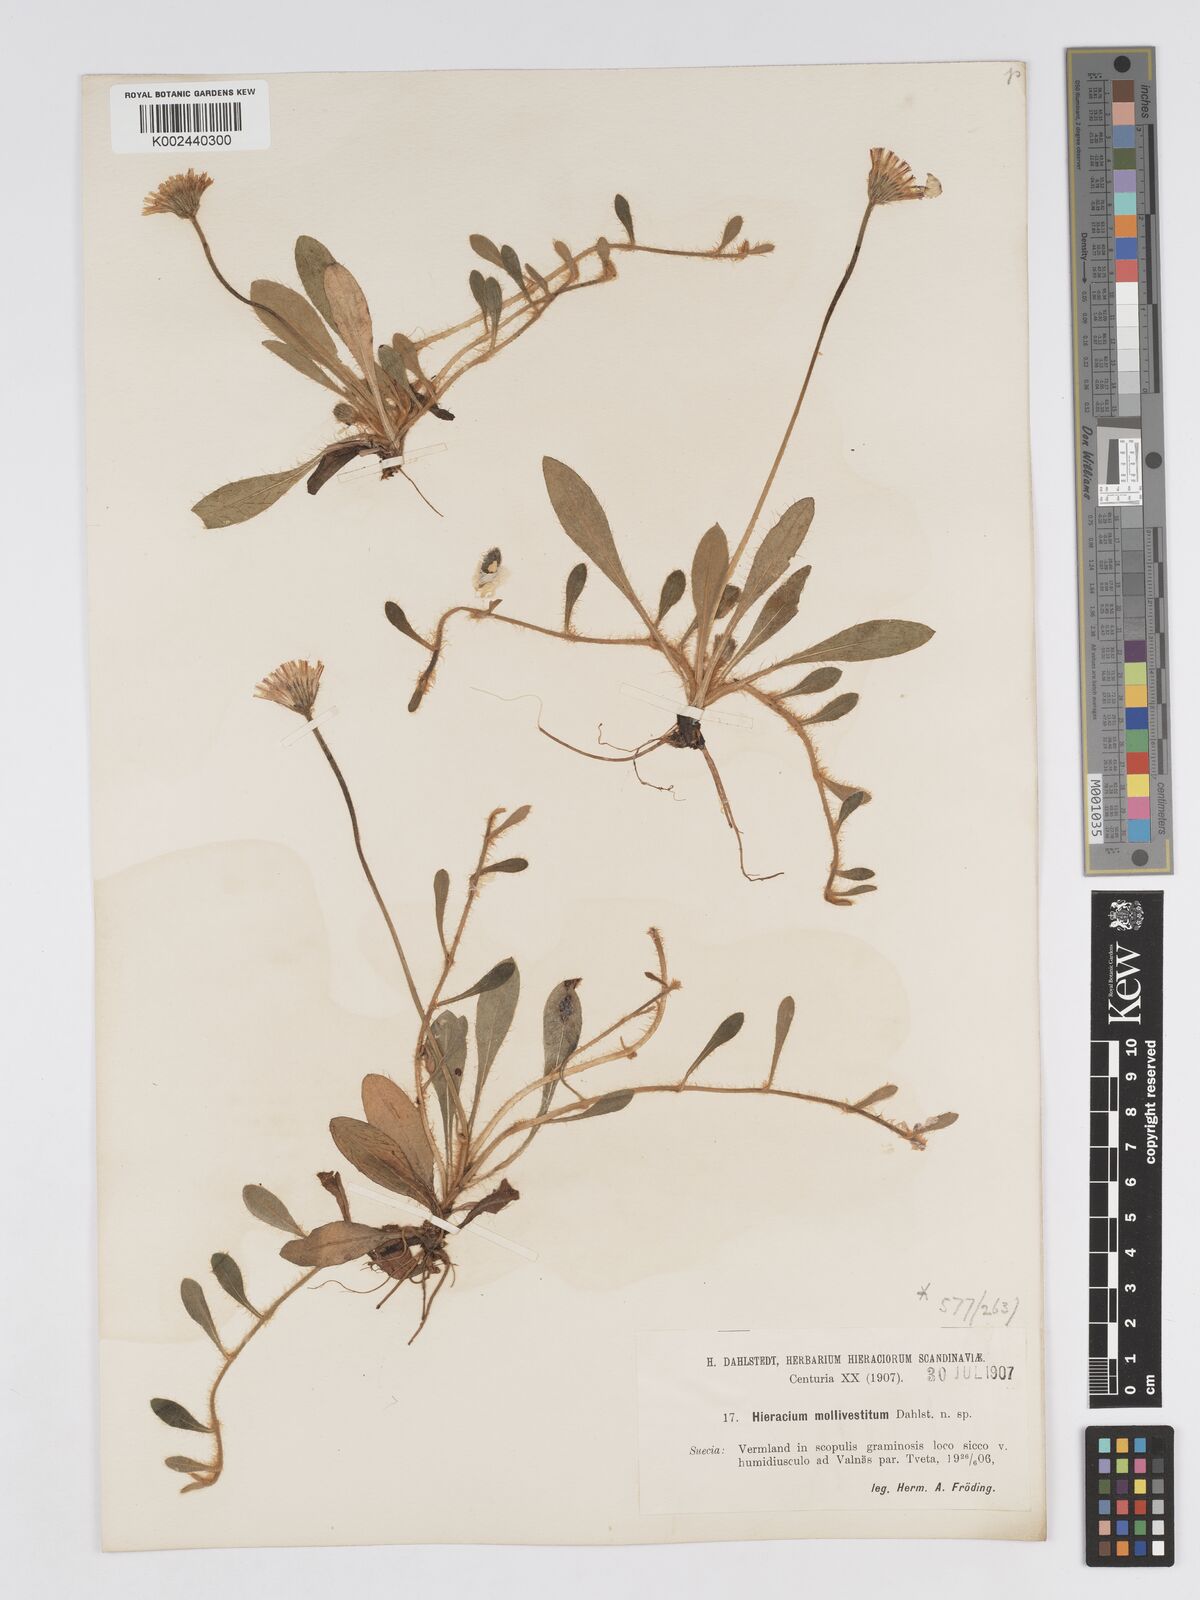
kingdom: Plantae
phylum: Tracheophyta
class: Magnoliopsida
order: Asterales
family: Asteraceae
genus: Pilosella
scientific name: Pilosella officinarum
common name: Mouse-ear hawkweed
